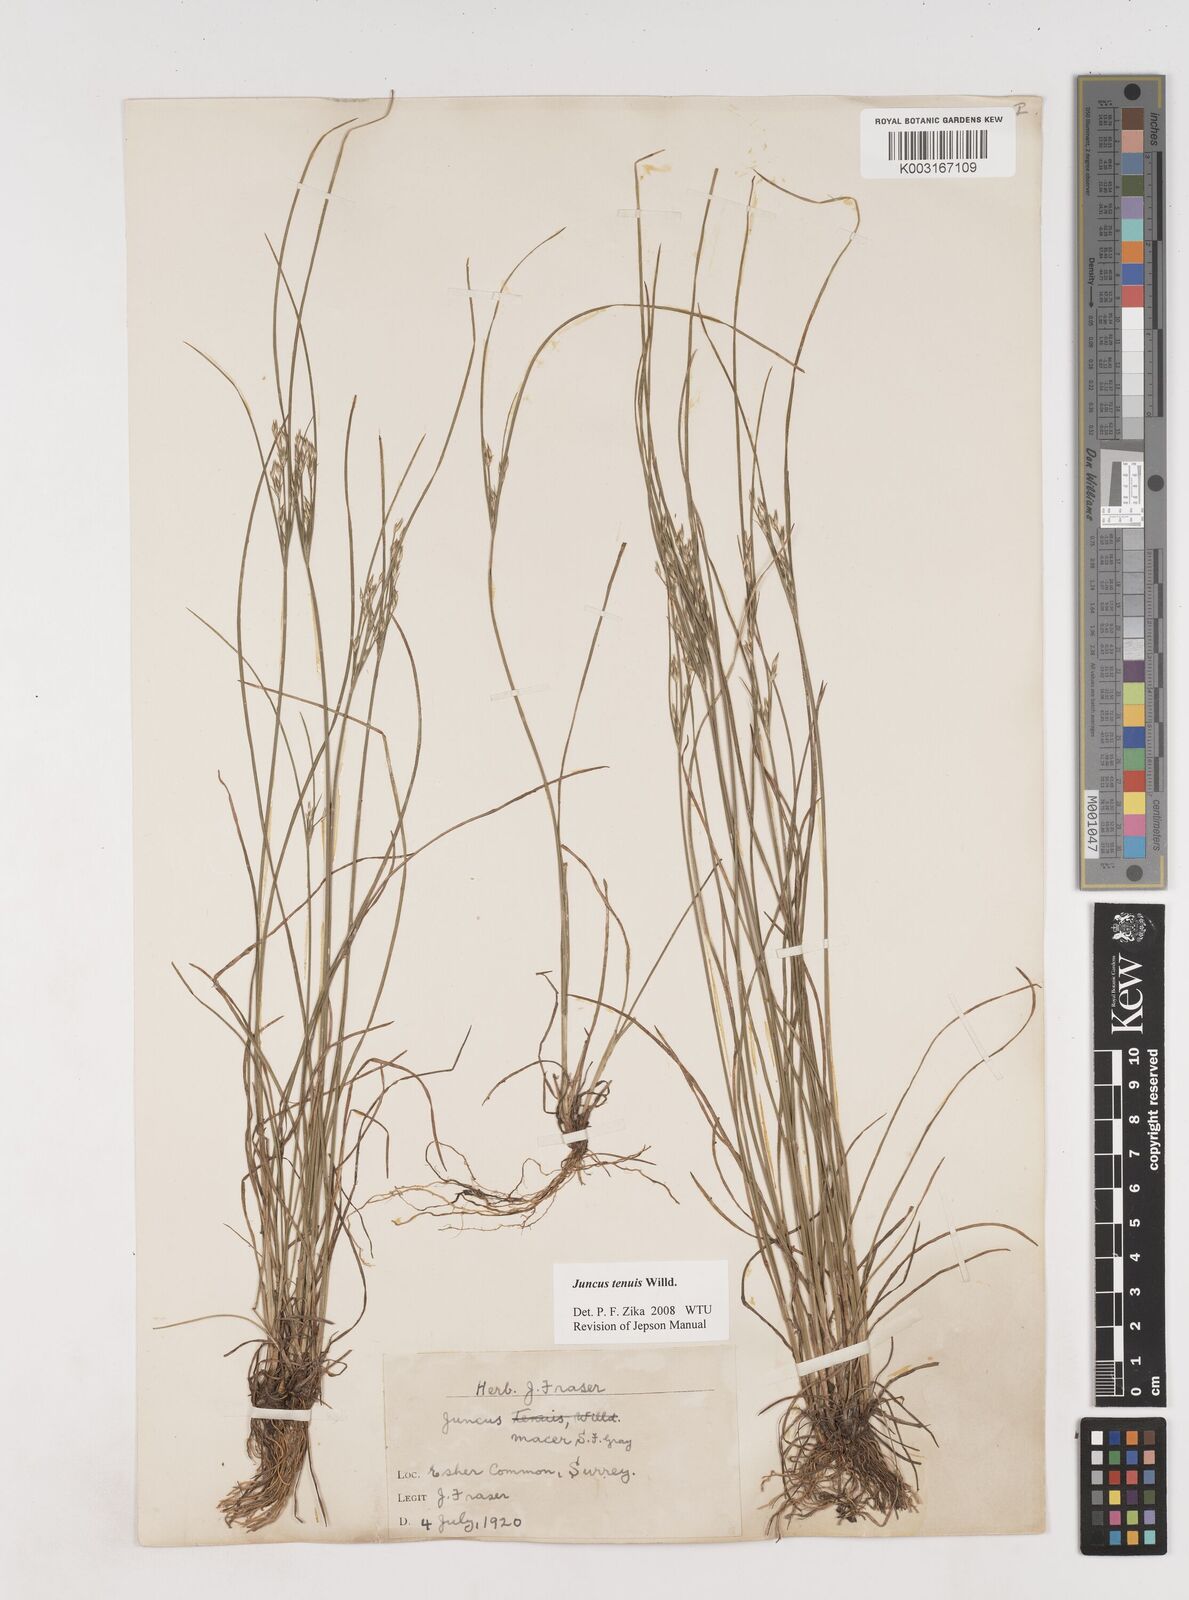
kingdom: Plantae
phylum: Tracheophyta
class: Liliopsida
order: Poales
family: Juncaceae
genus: Juncus
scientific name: Juncus occidentalis
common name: Western rush
